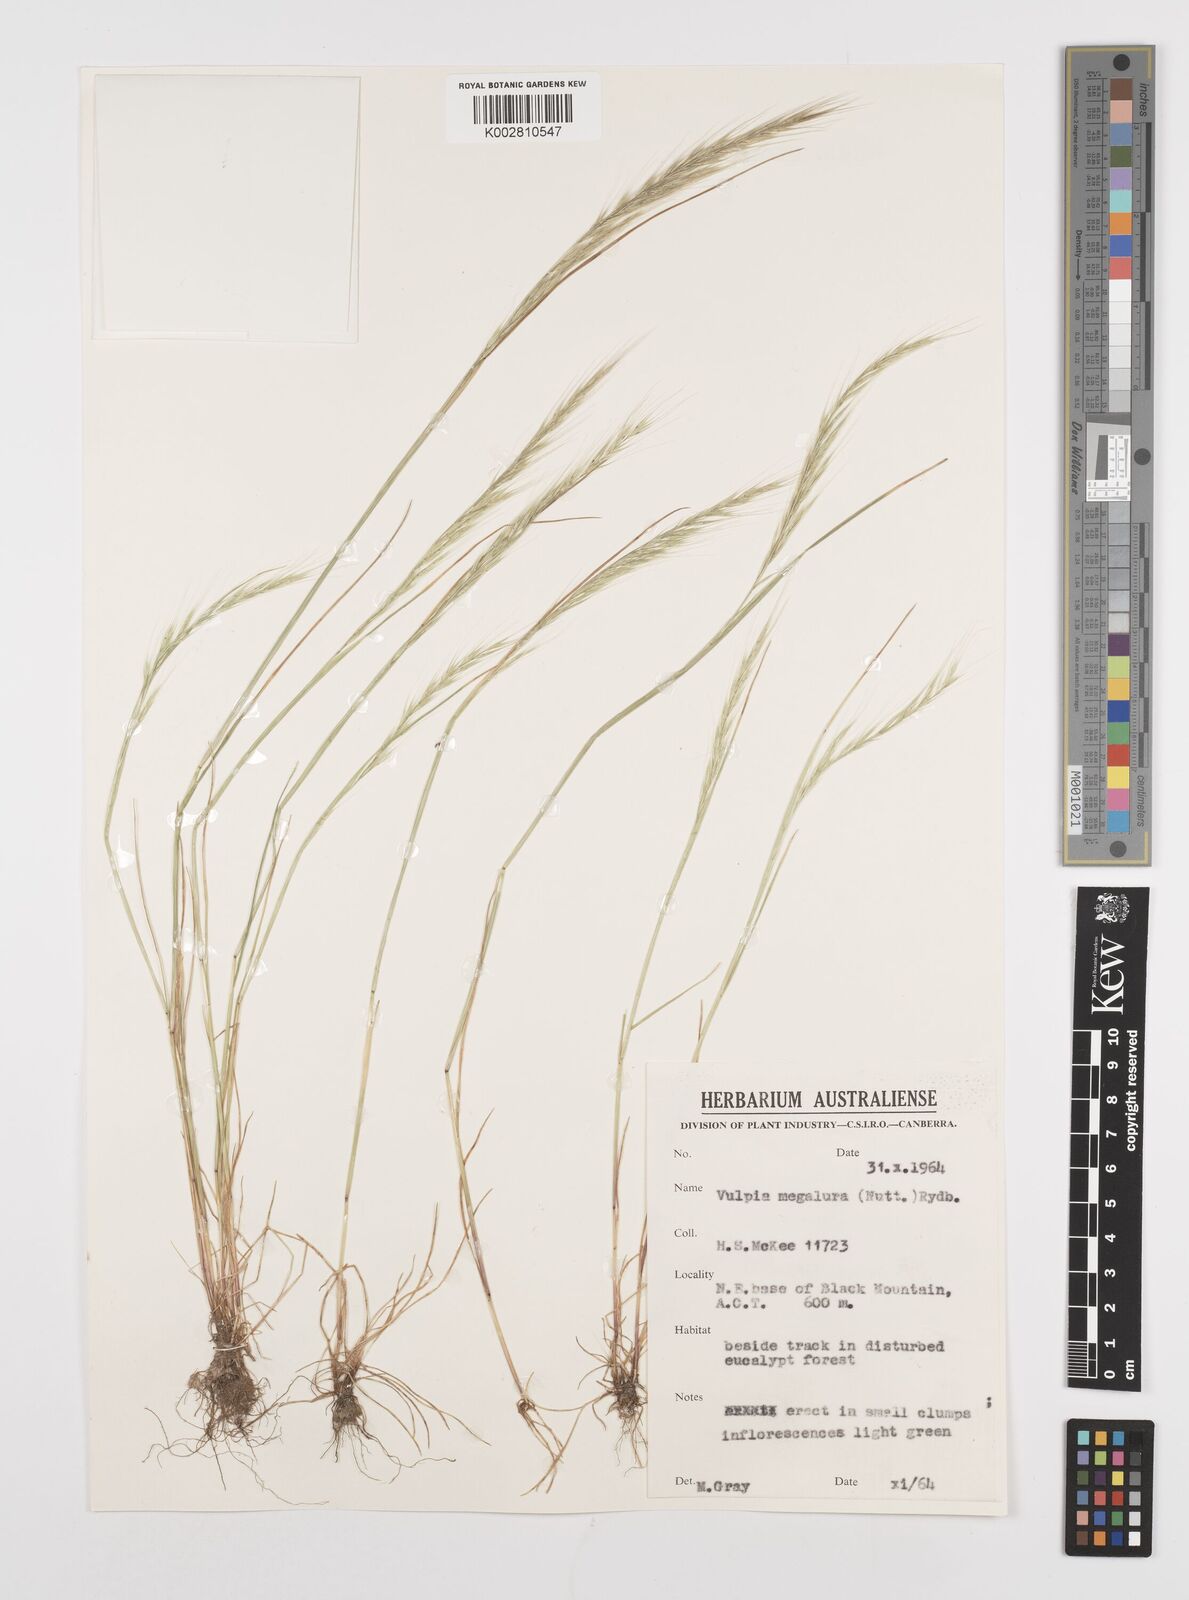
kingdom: Plantae
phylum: Tracheophyta
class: Liliopsida
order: Poales
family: Poaceae
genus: Festuca
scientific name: Festuca myuros
